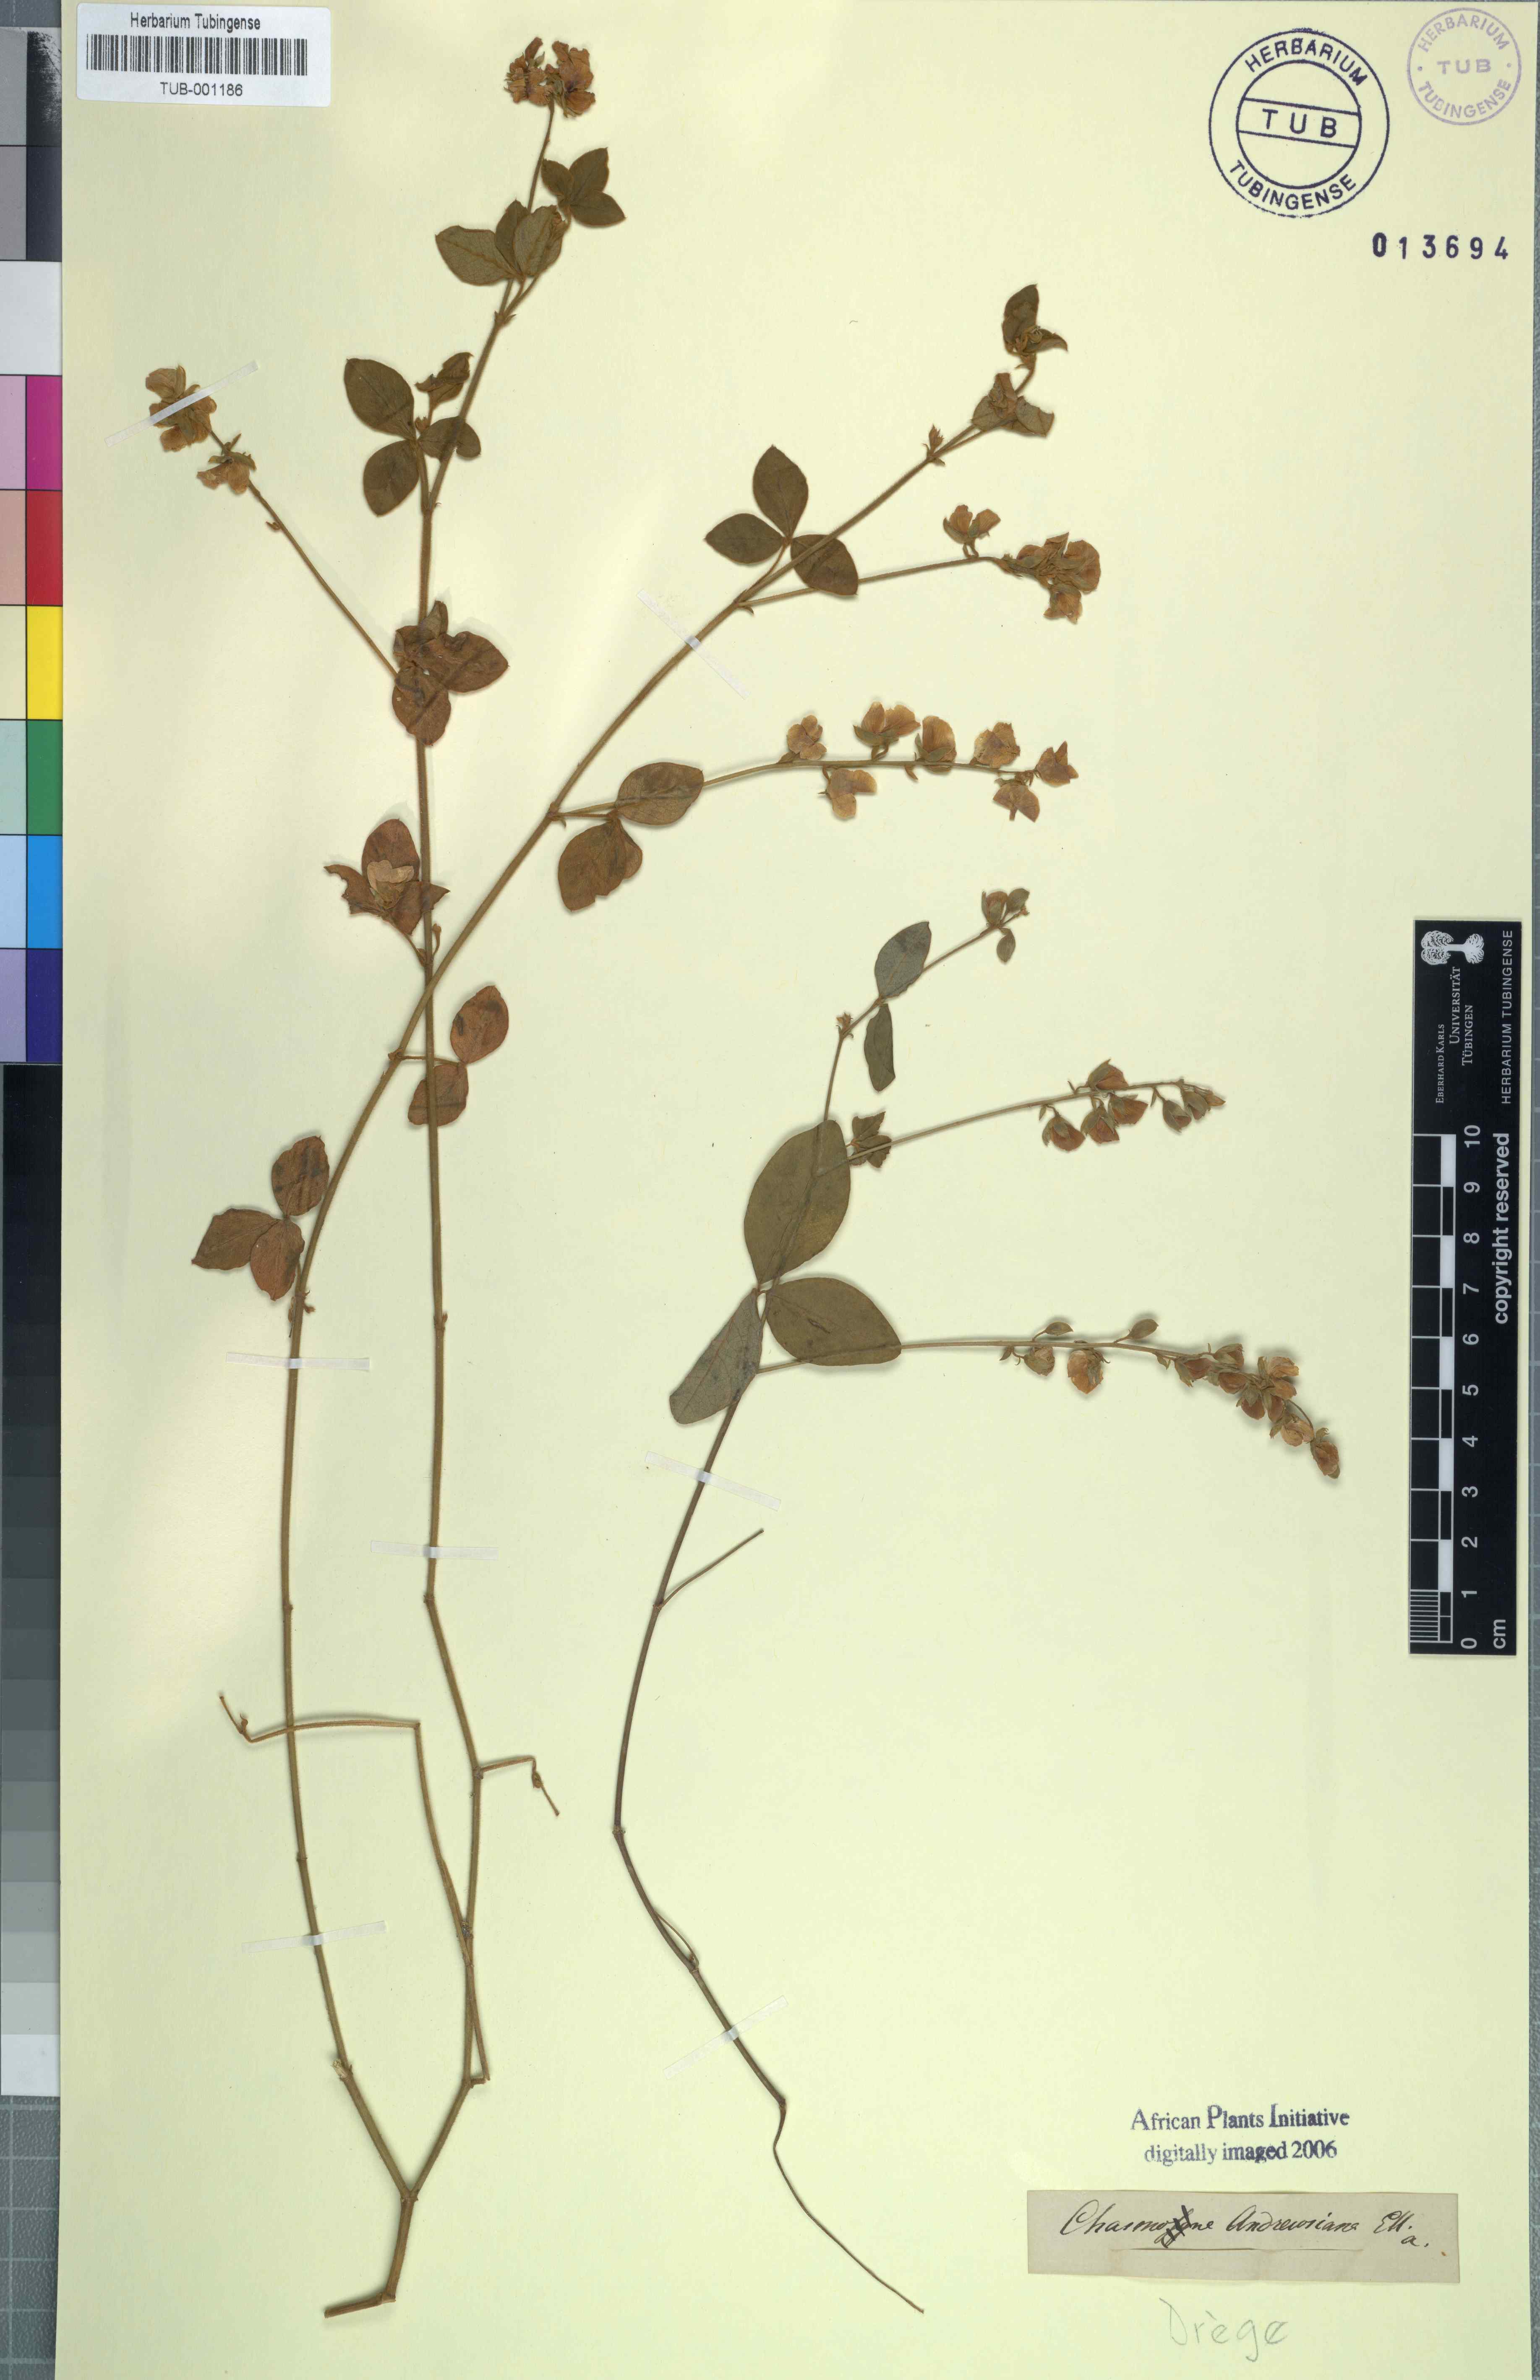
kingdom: Plantae
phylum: Tracheophyta
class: Magnoliopsida
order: Fabales
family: Fabaceae
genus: Argyrolobium
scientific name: Argyrolobium tomentosum
